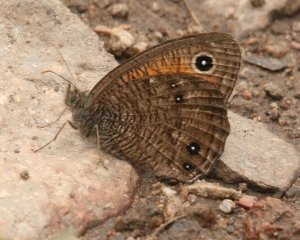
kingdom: Animalia
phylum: Arthropoda
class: Insecta
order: Lepidoptera
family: Nymphalidae
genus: Cercyonis
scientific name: Cercyonis meadi
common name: Mead's Wood-Nymph
